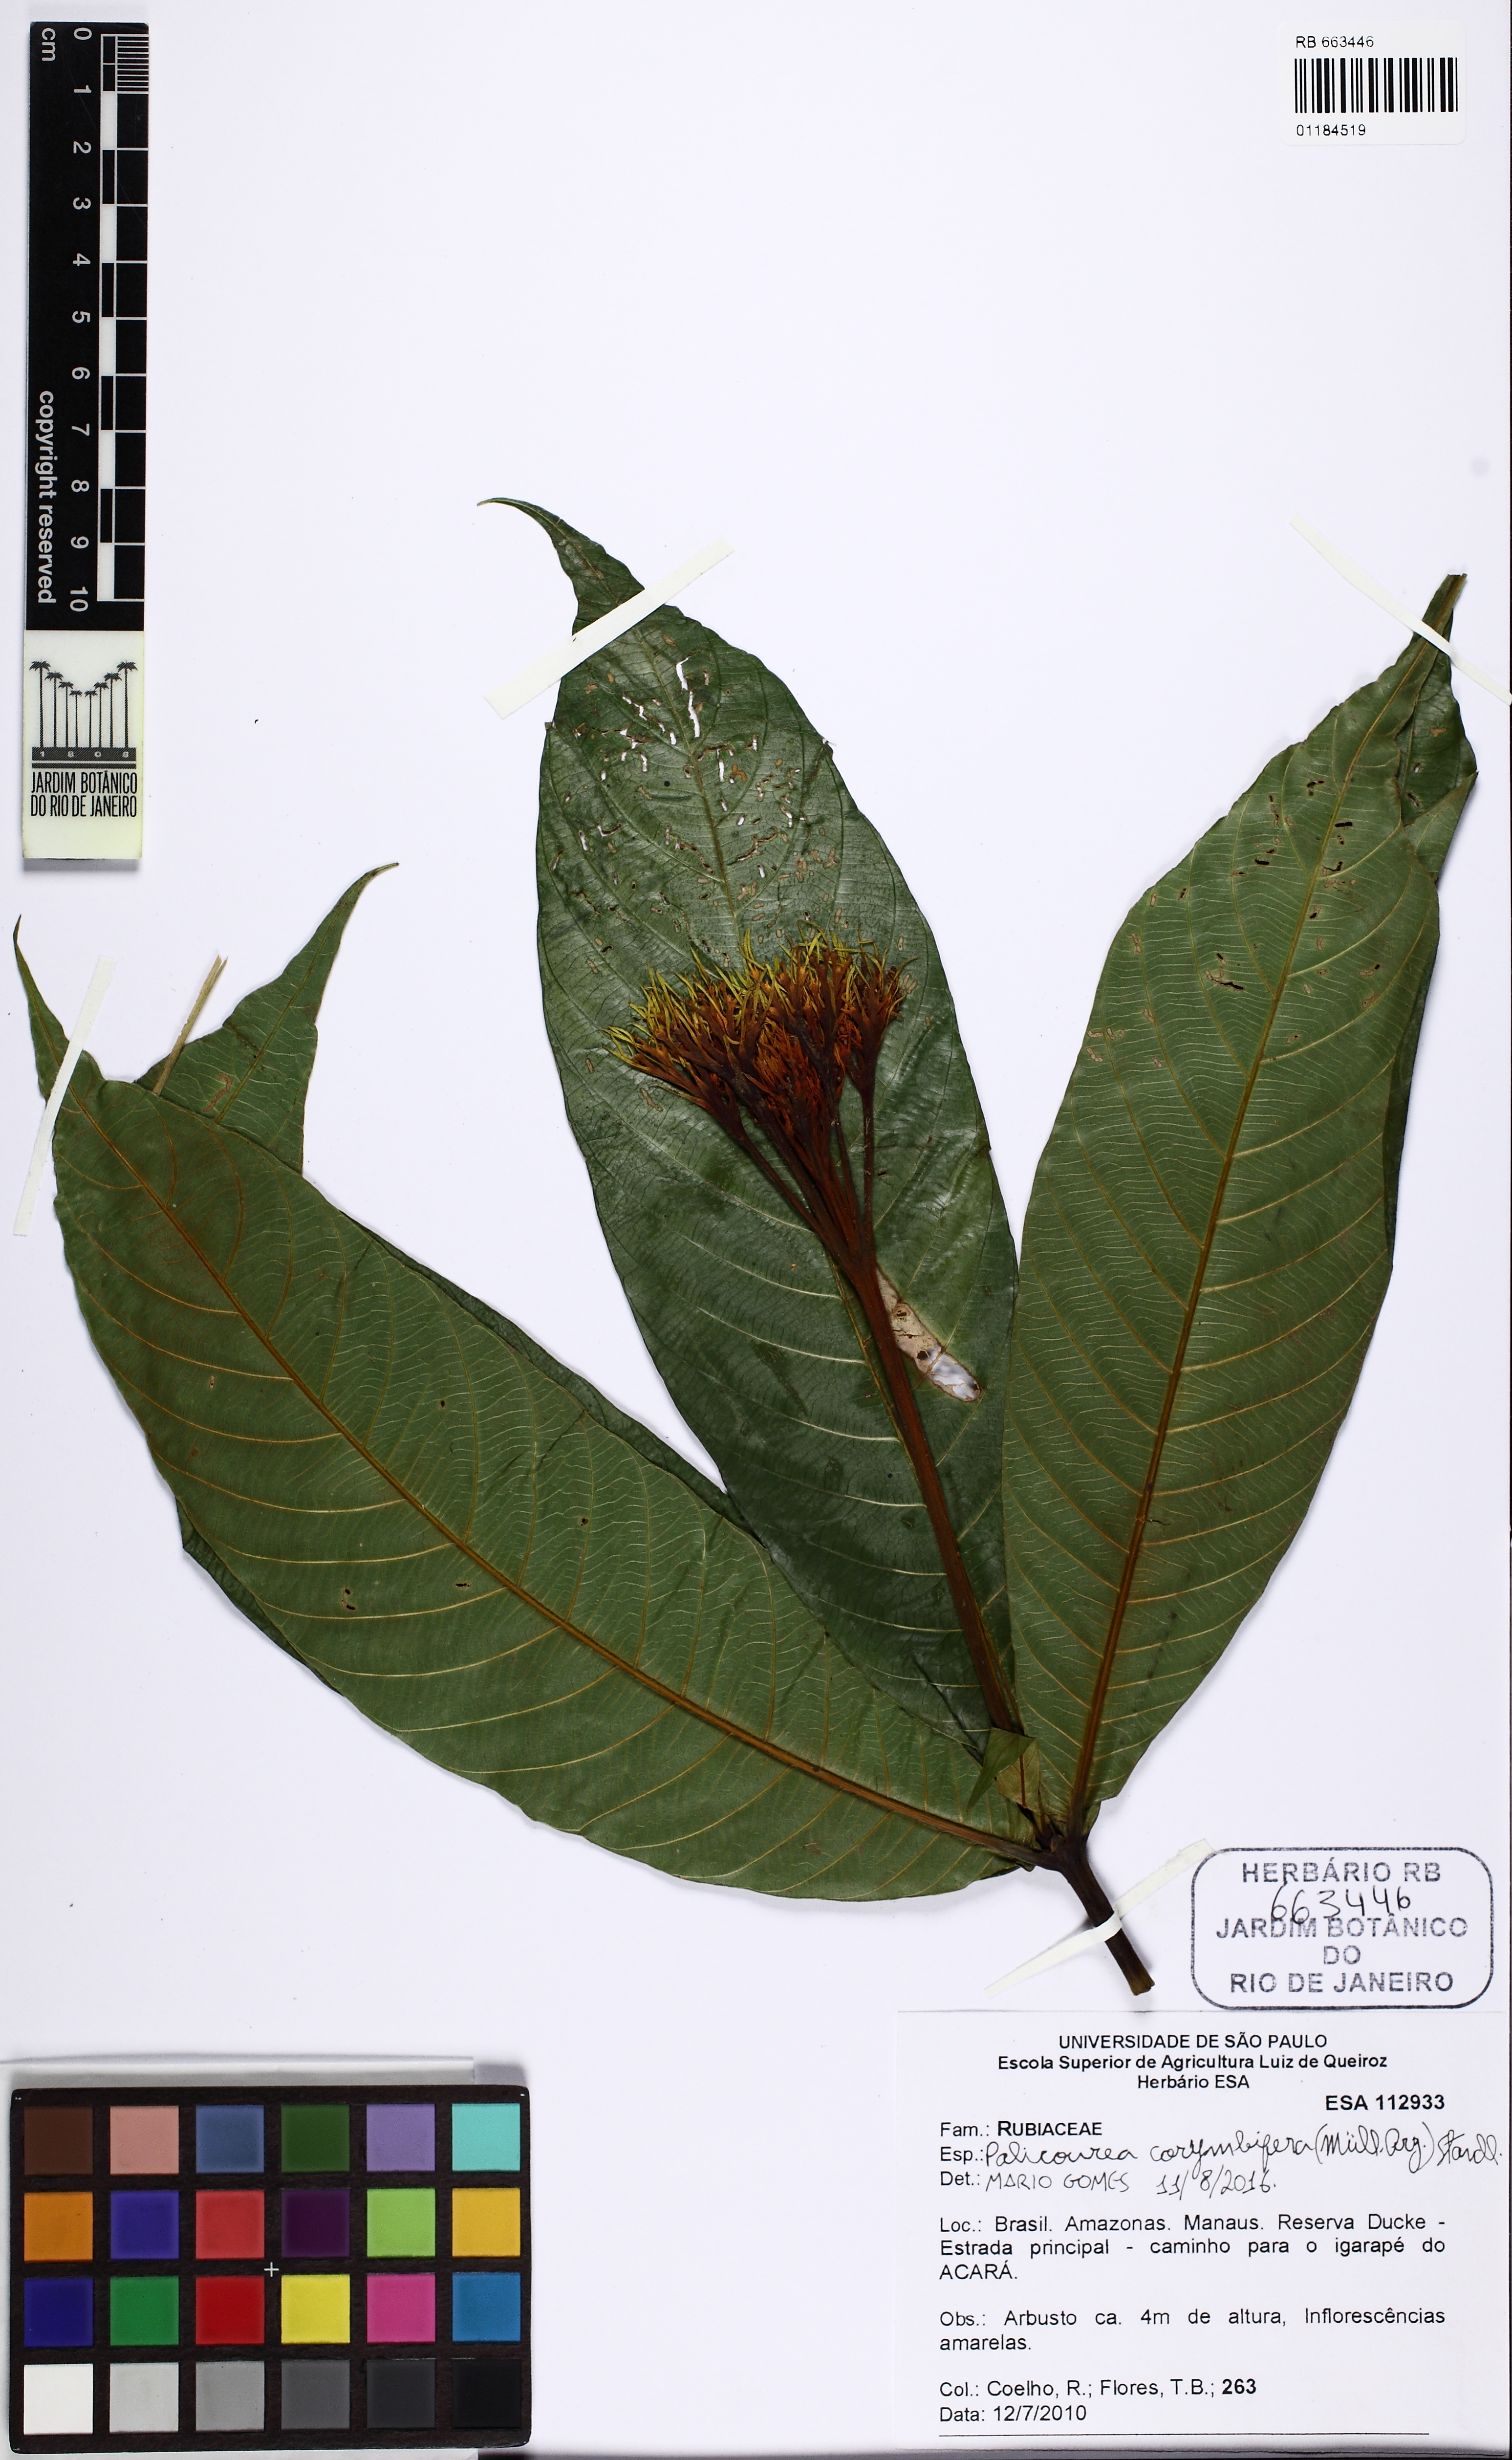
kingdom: Plantae
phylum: Tracheophyta
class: Magnoliopsida
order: Gentianales
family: Rubiaceae
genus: Palicourea
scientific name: Palicourea corymbifera
